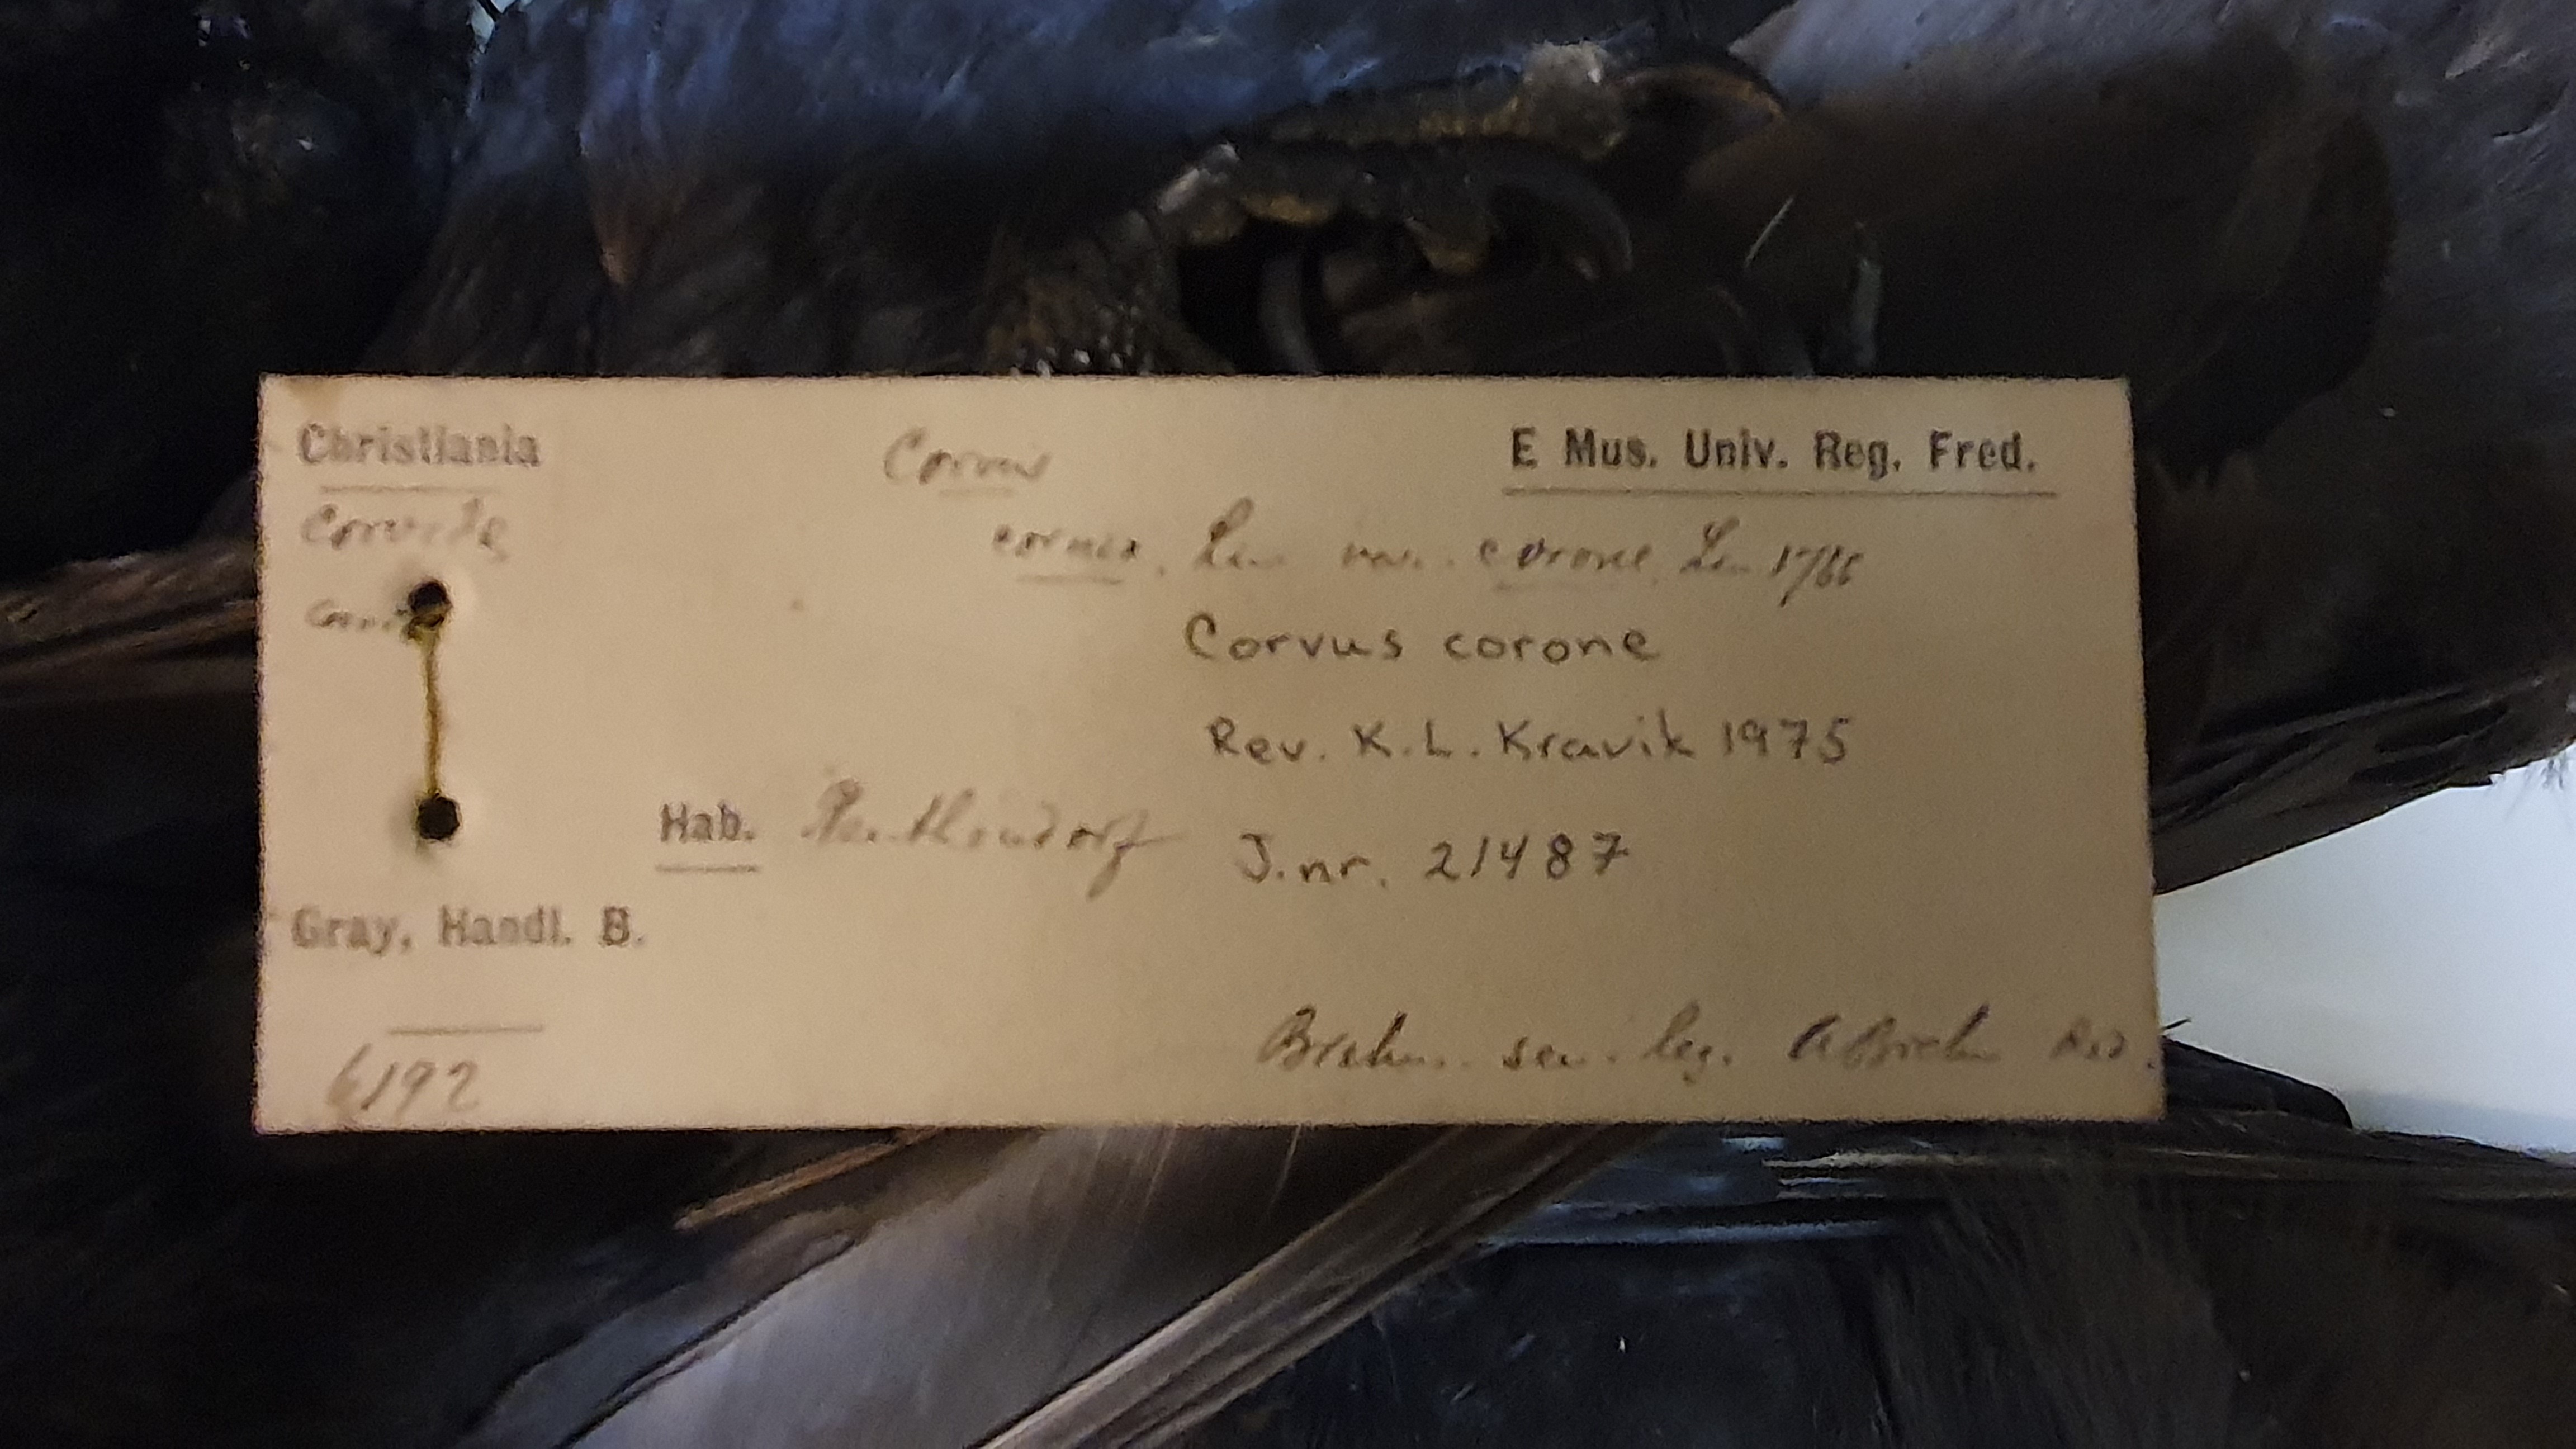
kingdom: Animalia
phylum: Chordata
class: Aves
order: Passeriformes
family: Corvidae
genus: Corvus
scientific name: Corvus corone
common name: Carrion crow
